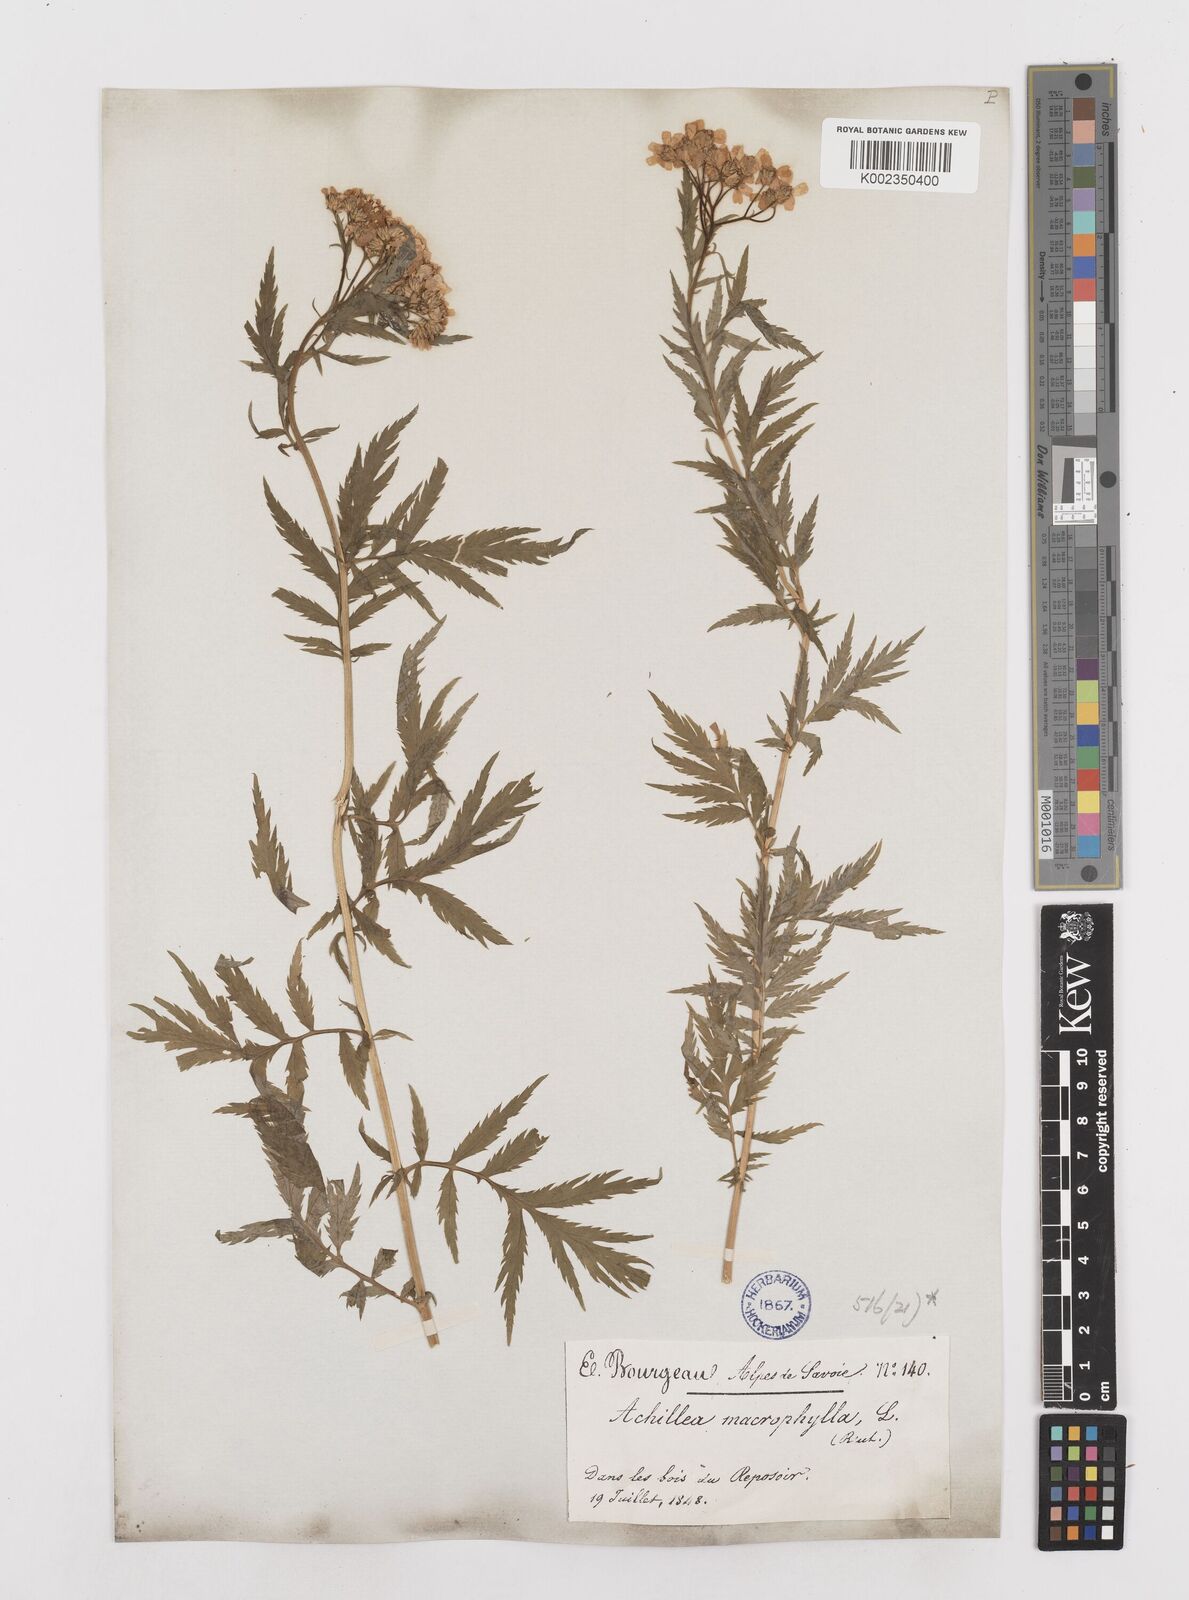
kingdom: Plantae
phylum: Tracheophyta
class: Magnoliopsida
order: Asterales
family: Asteraceae
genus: Achillea
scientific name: Achillea macrophylla
